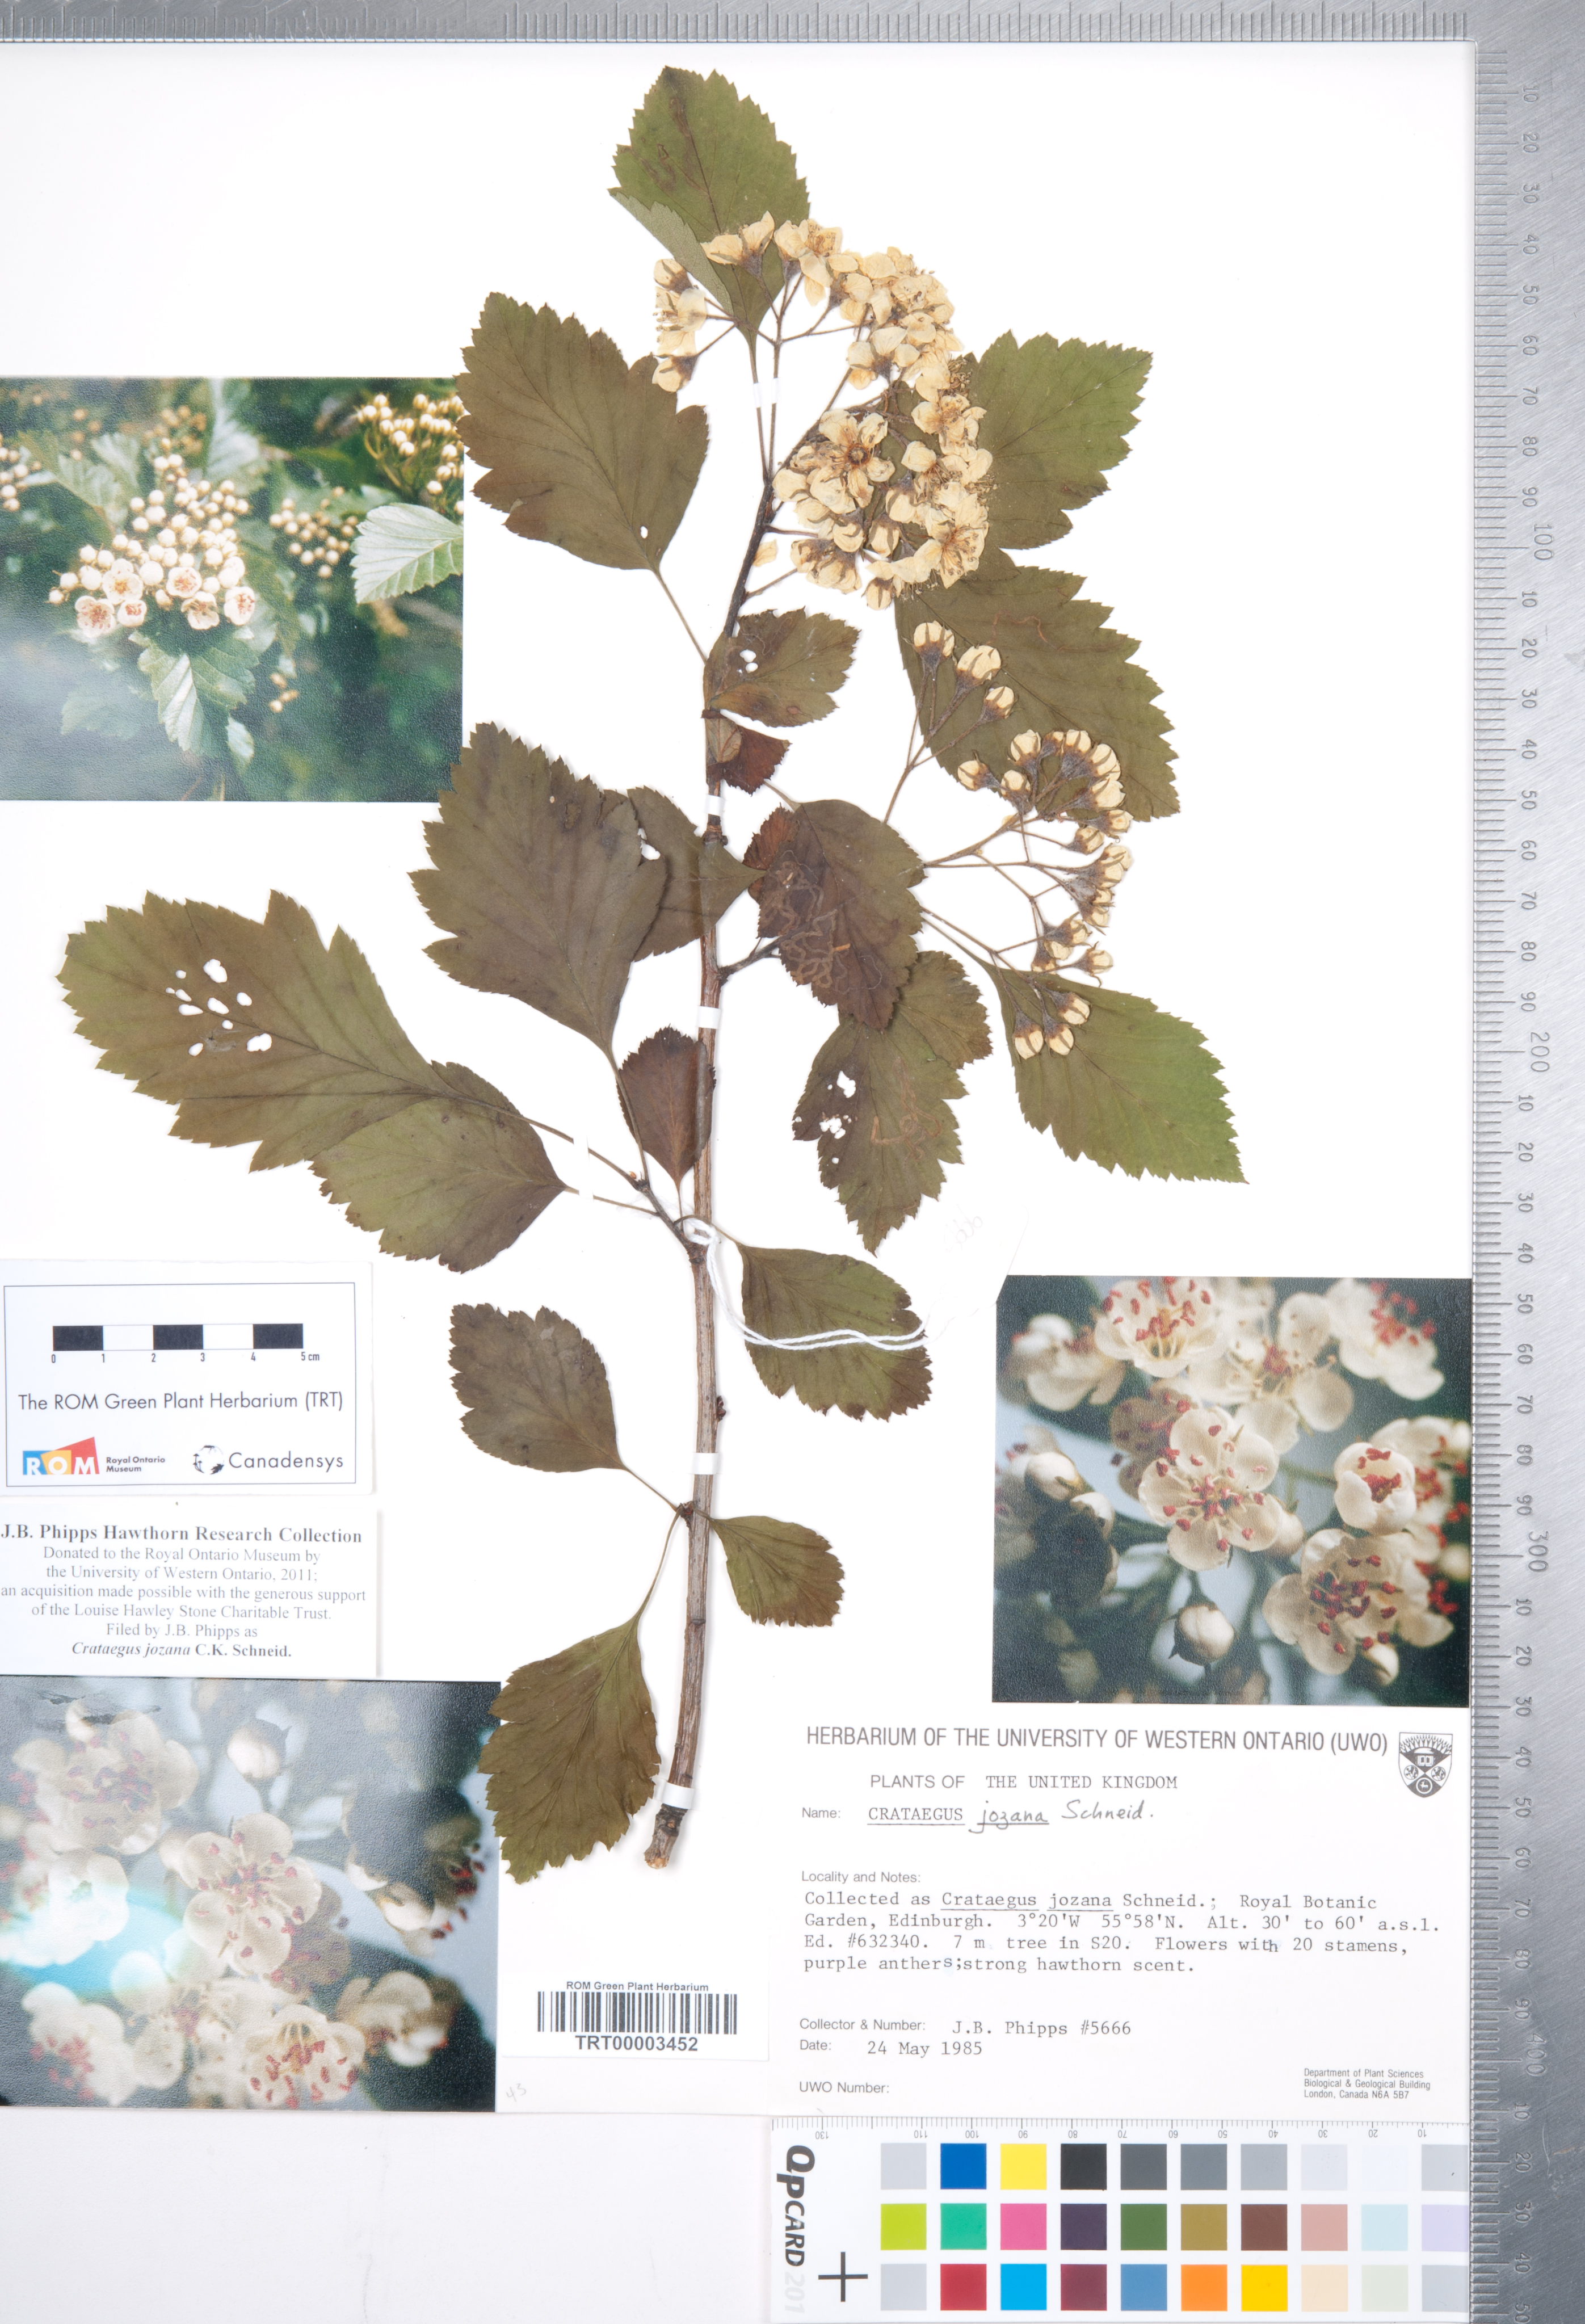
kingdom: Plantae
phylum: Tracheophyta
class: Magnoliopsida
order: Rosales
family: Rosaceae
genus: Crataegus
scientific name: Crataegus chlorosarca
